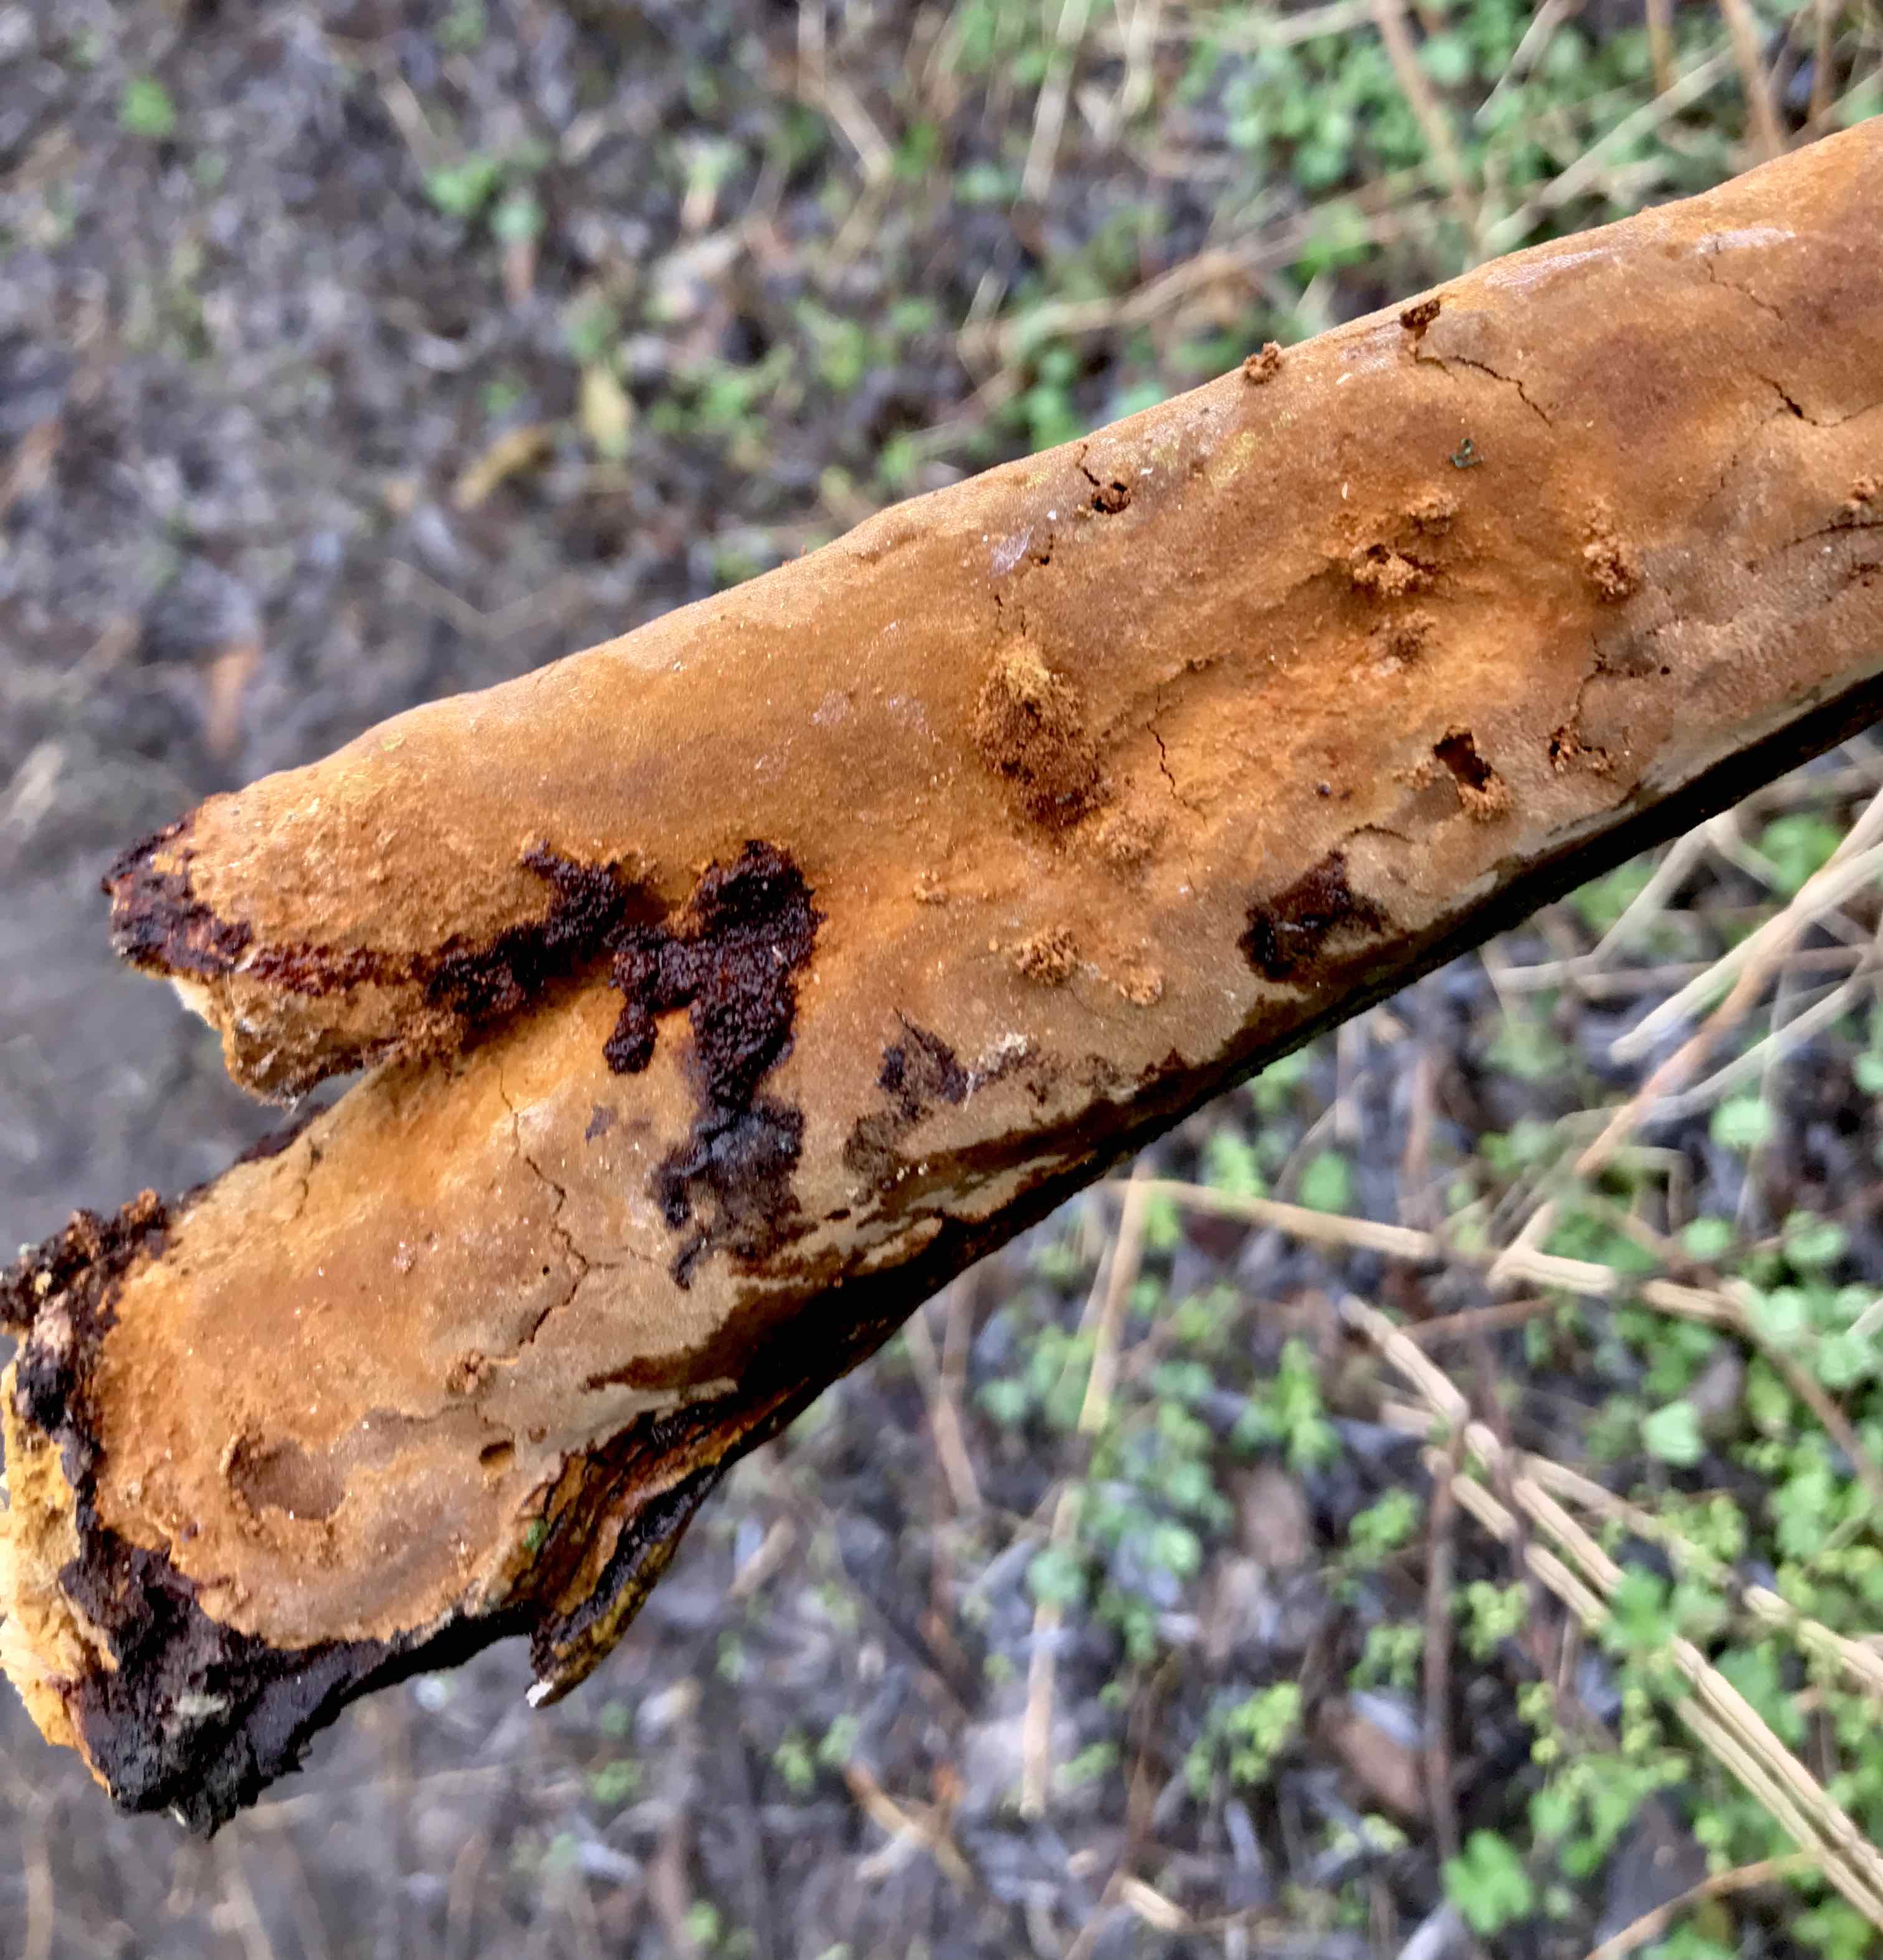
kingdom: Fungi
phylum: Basidiomycota
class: Agaricomycetes
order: Hymenochaetales
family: Hymenochaetaceae
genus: Fuscoporia
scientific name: Fuscoporia ferrea
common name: skorpe-ildporesvamp
